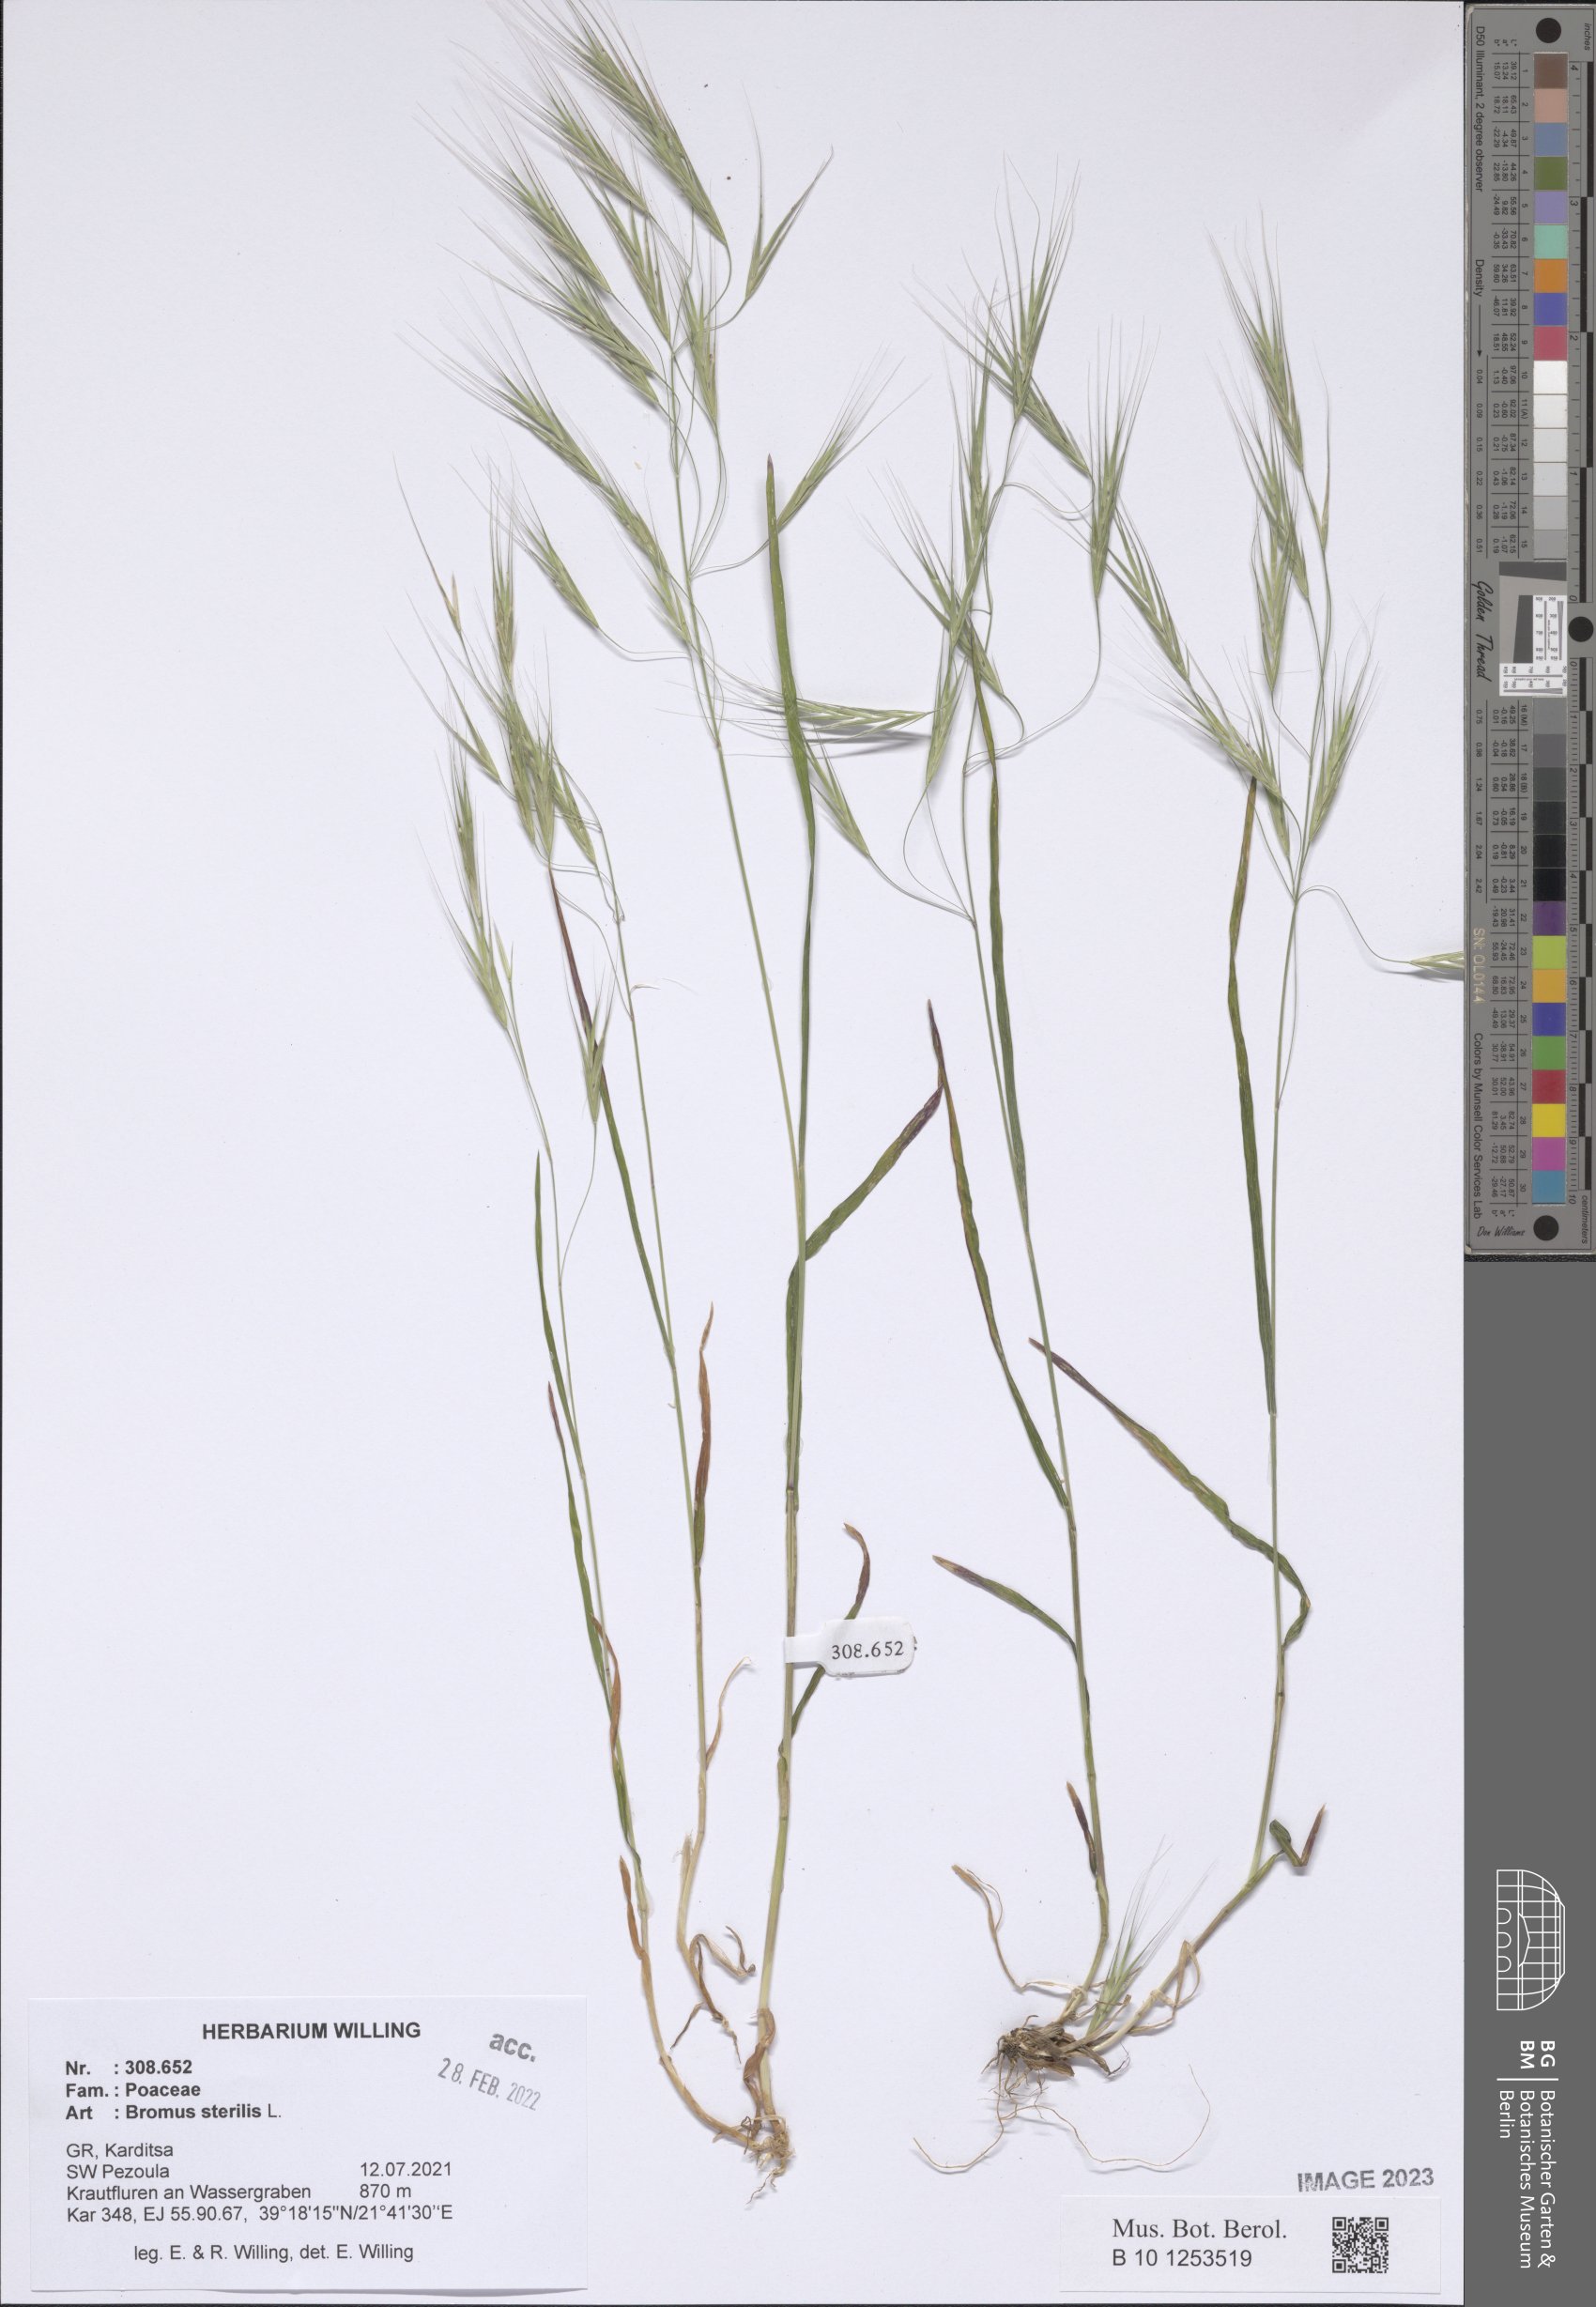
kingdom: Plantae
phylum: Tracheophyta
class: Liliopsida
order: Poales
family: Poaceae
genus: Bromus
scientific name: Bromus sterilis
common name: Poverty brome
